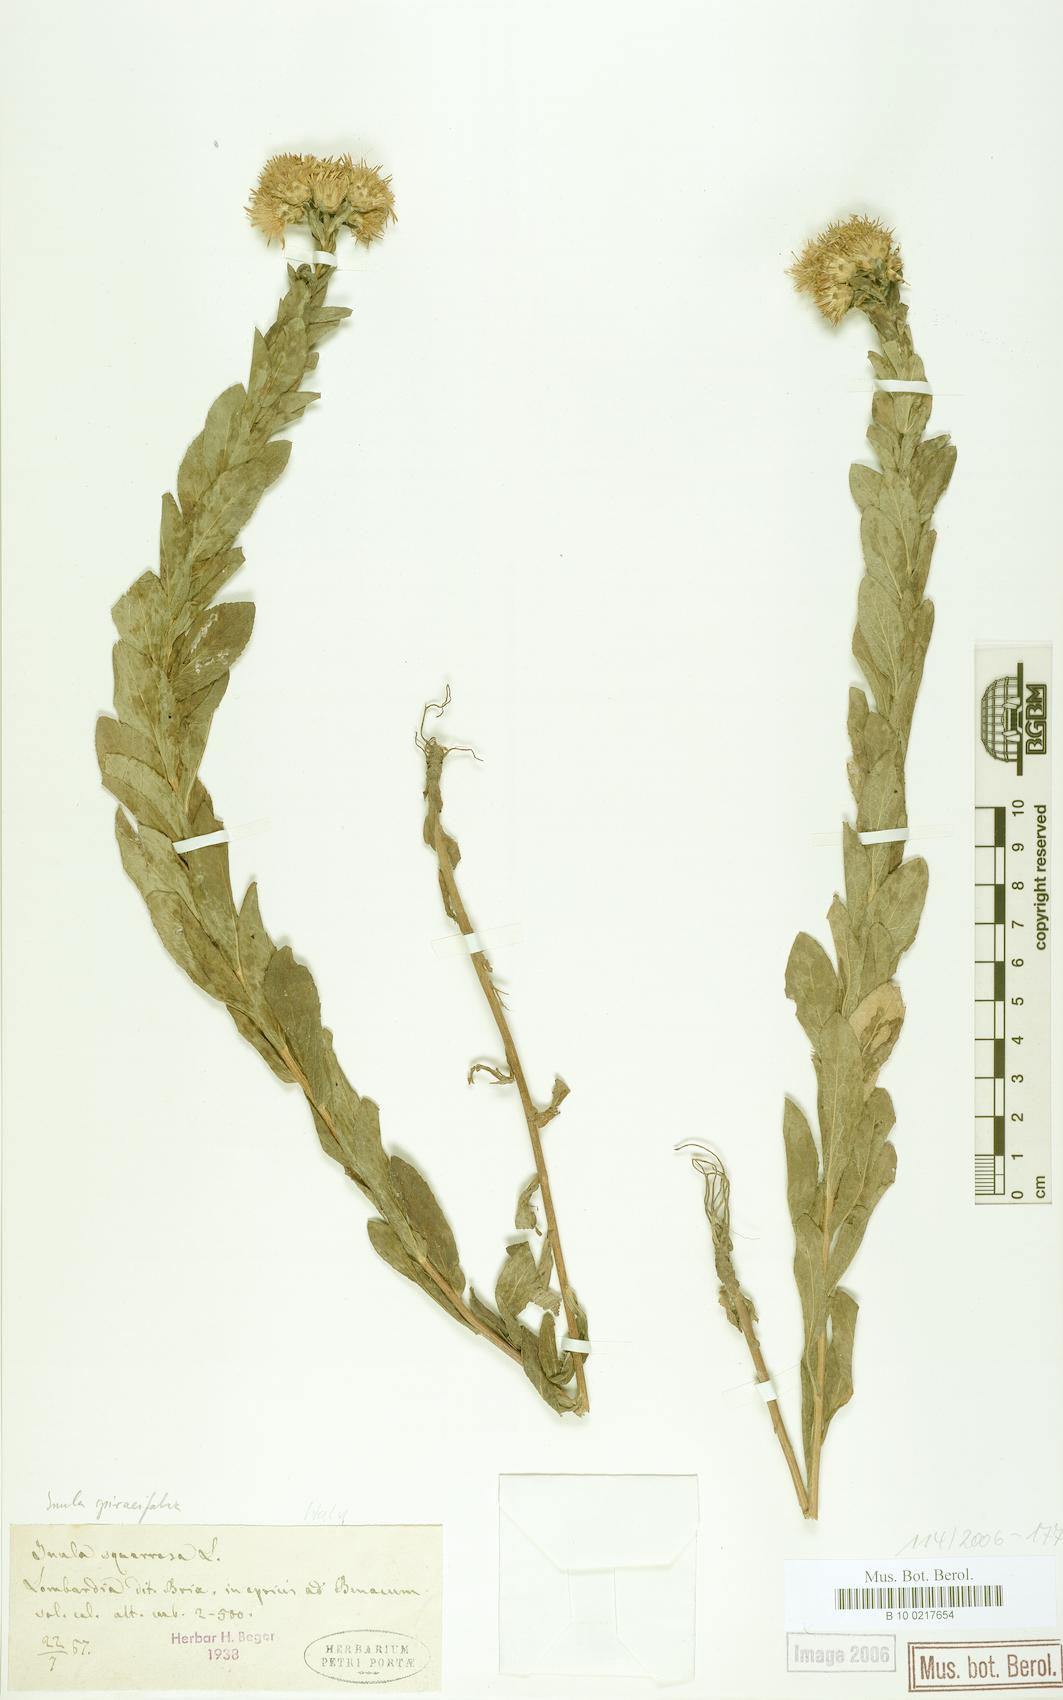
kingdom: Plantae
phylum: Tracheophyta
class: Magnoliopsida
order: Asterales
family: Asteraceae
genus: Pentanema
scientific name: Pentanema spiraeifolium
